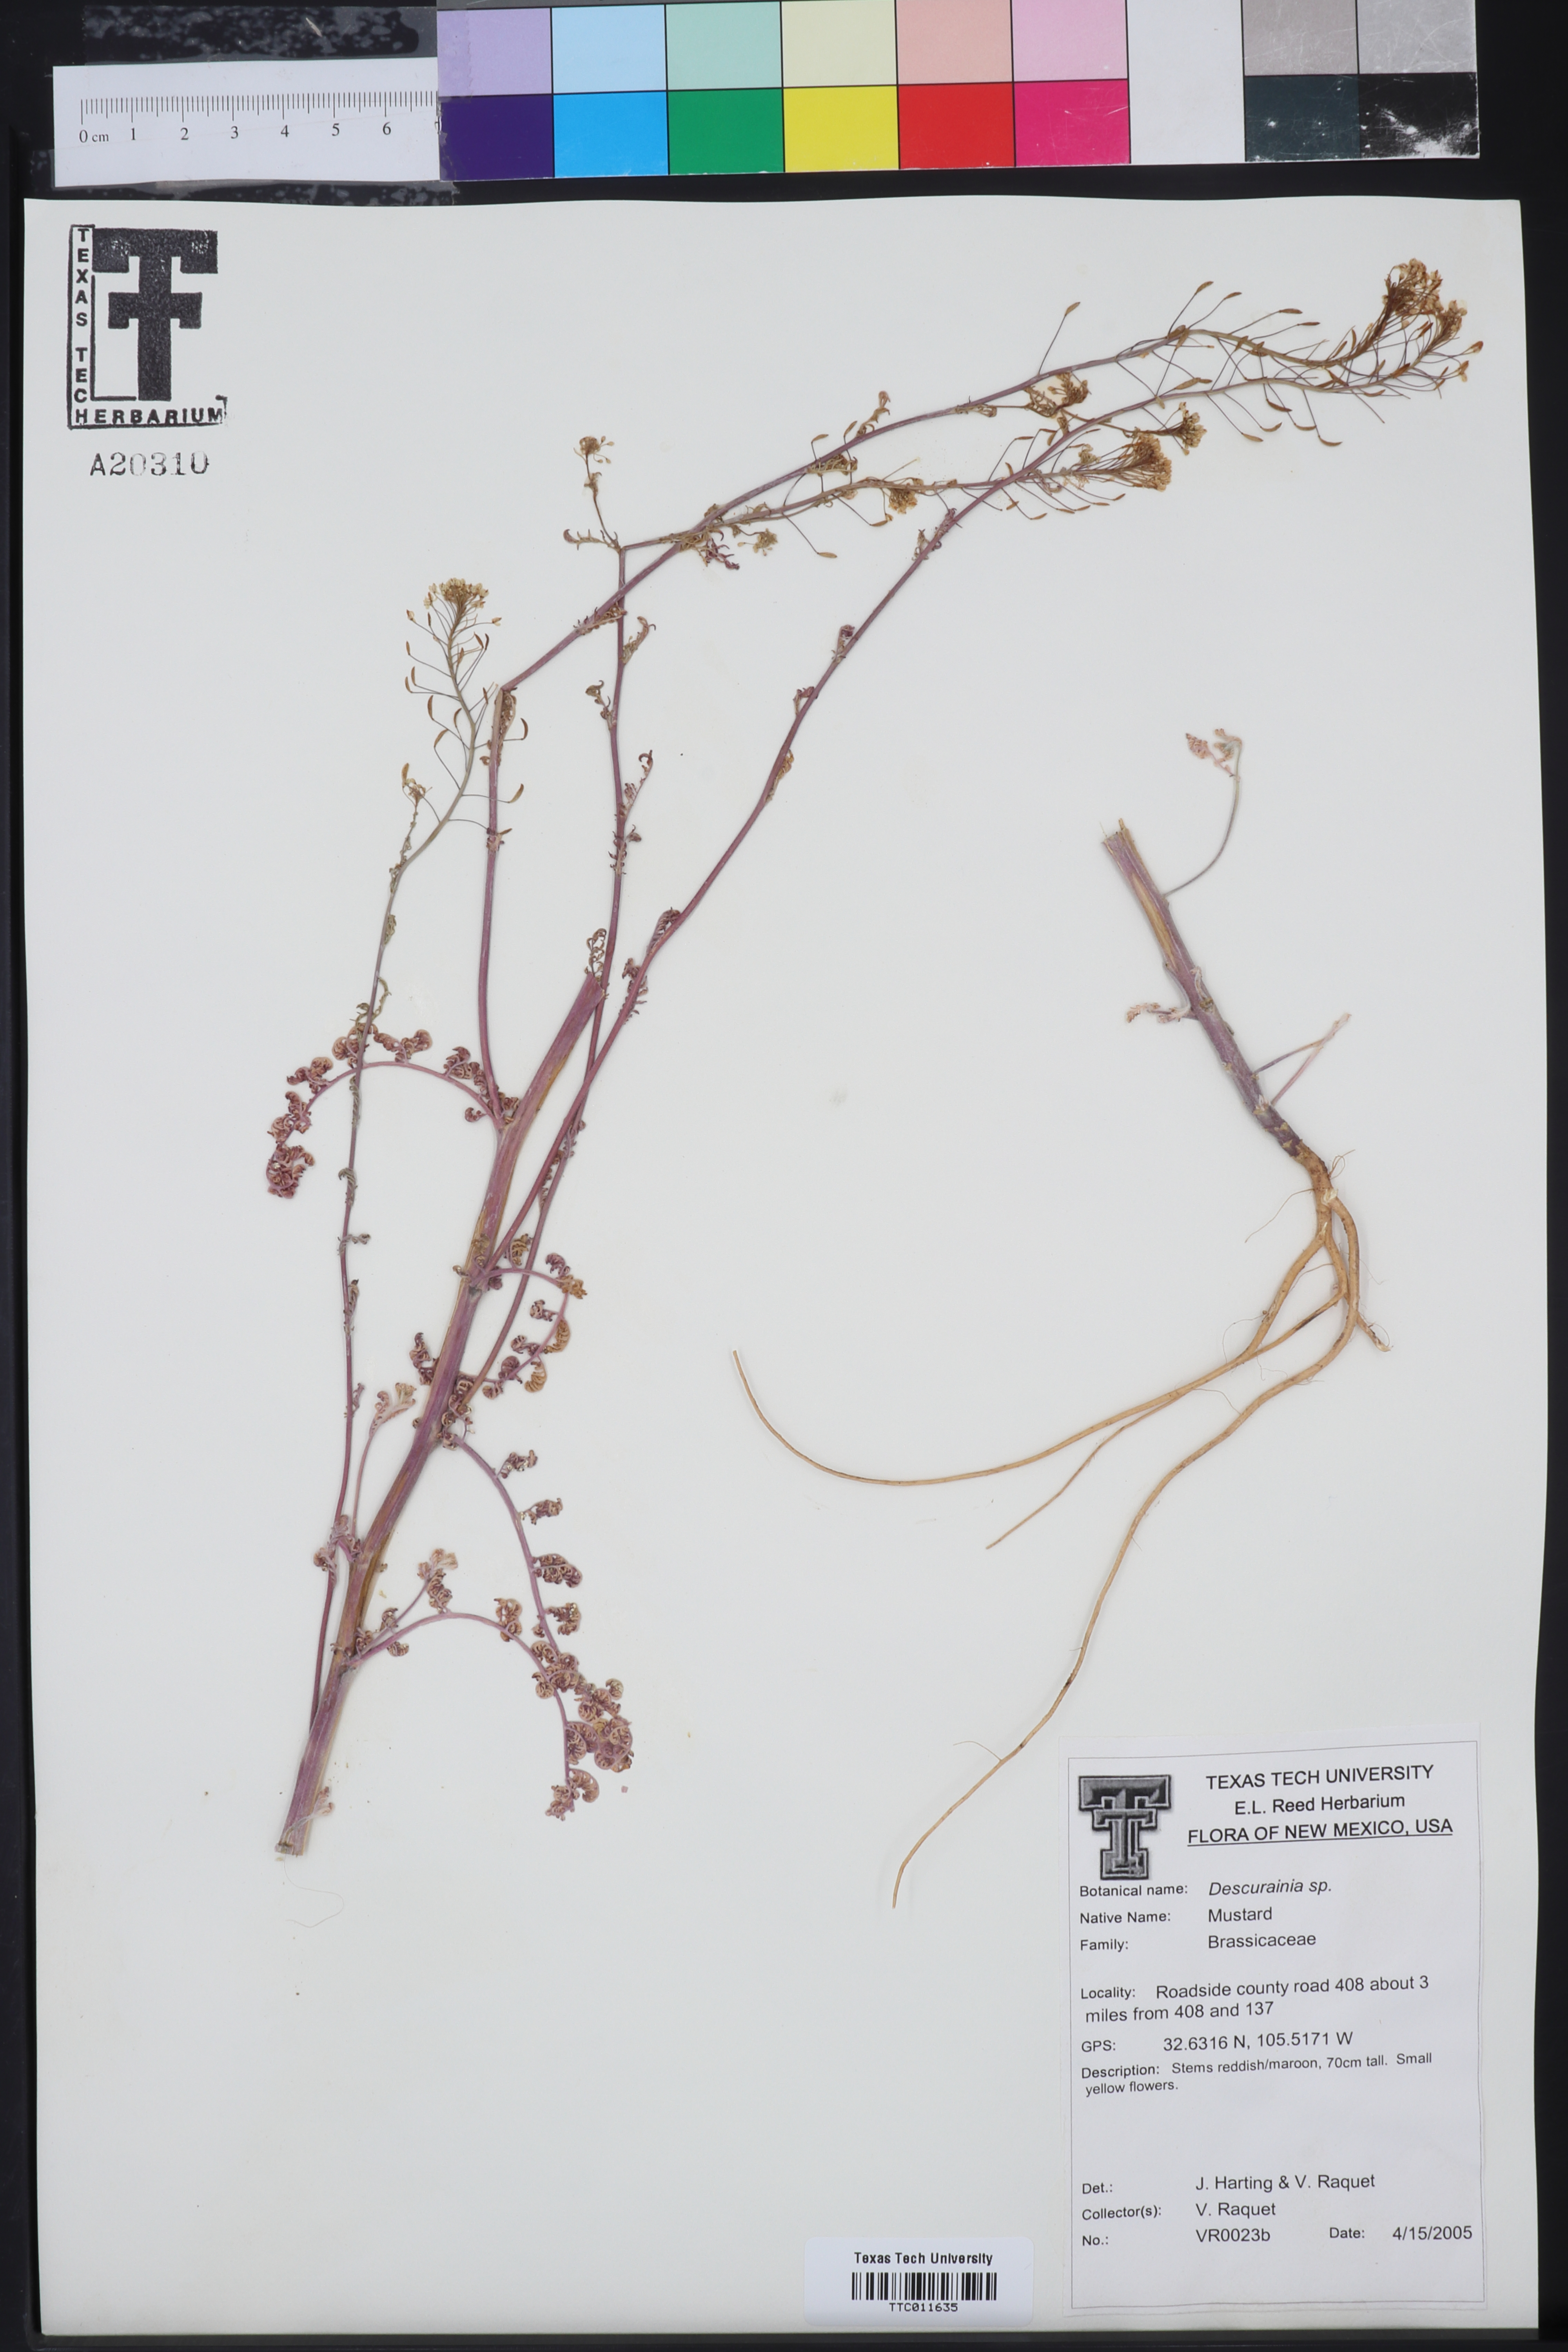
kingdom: Plantae
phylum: Tracheophyta
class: Magnoliopsida
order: Brassicales
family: Brassicaceae
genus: Descurainia
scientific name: Descurainia
